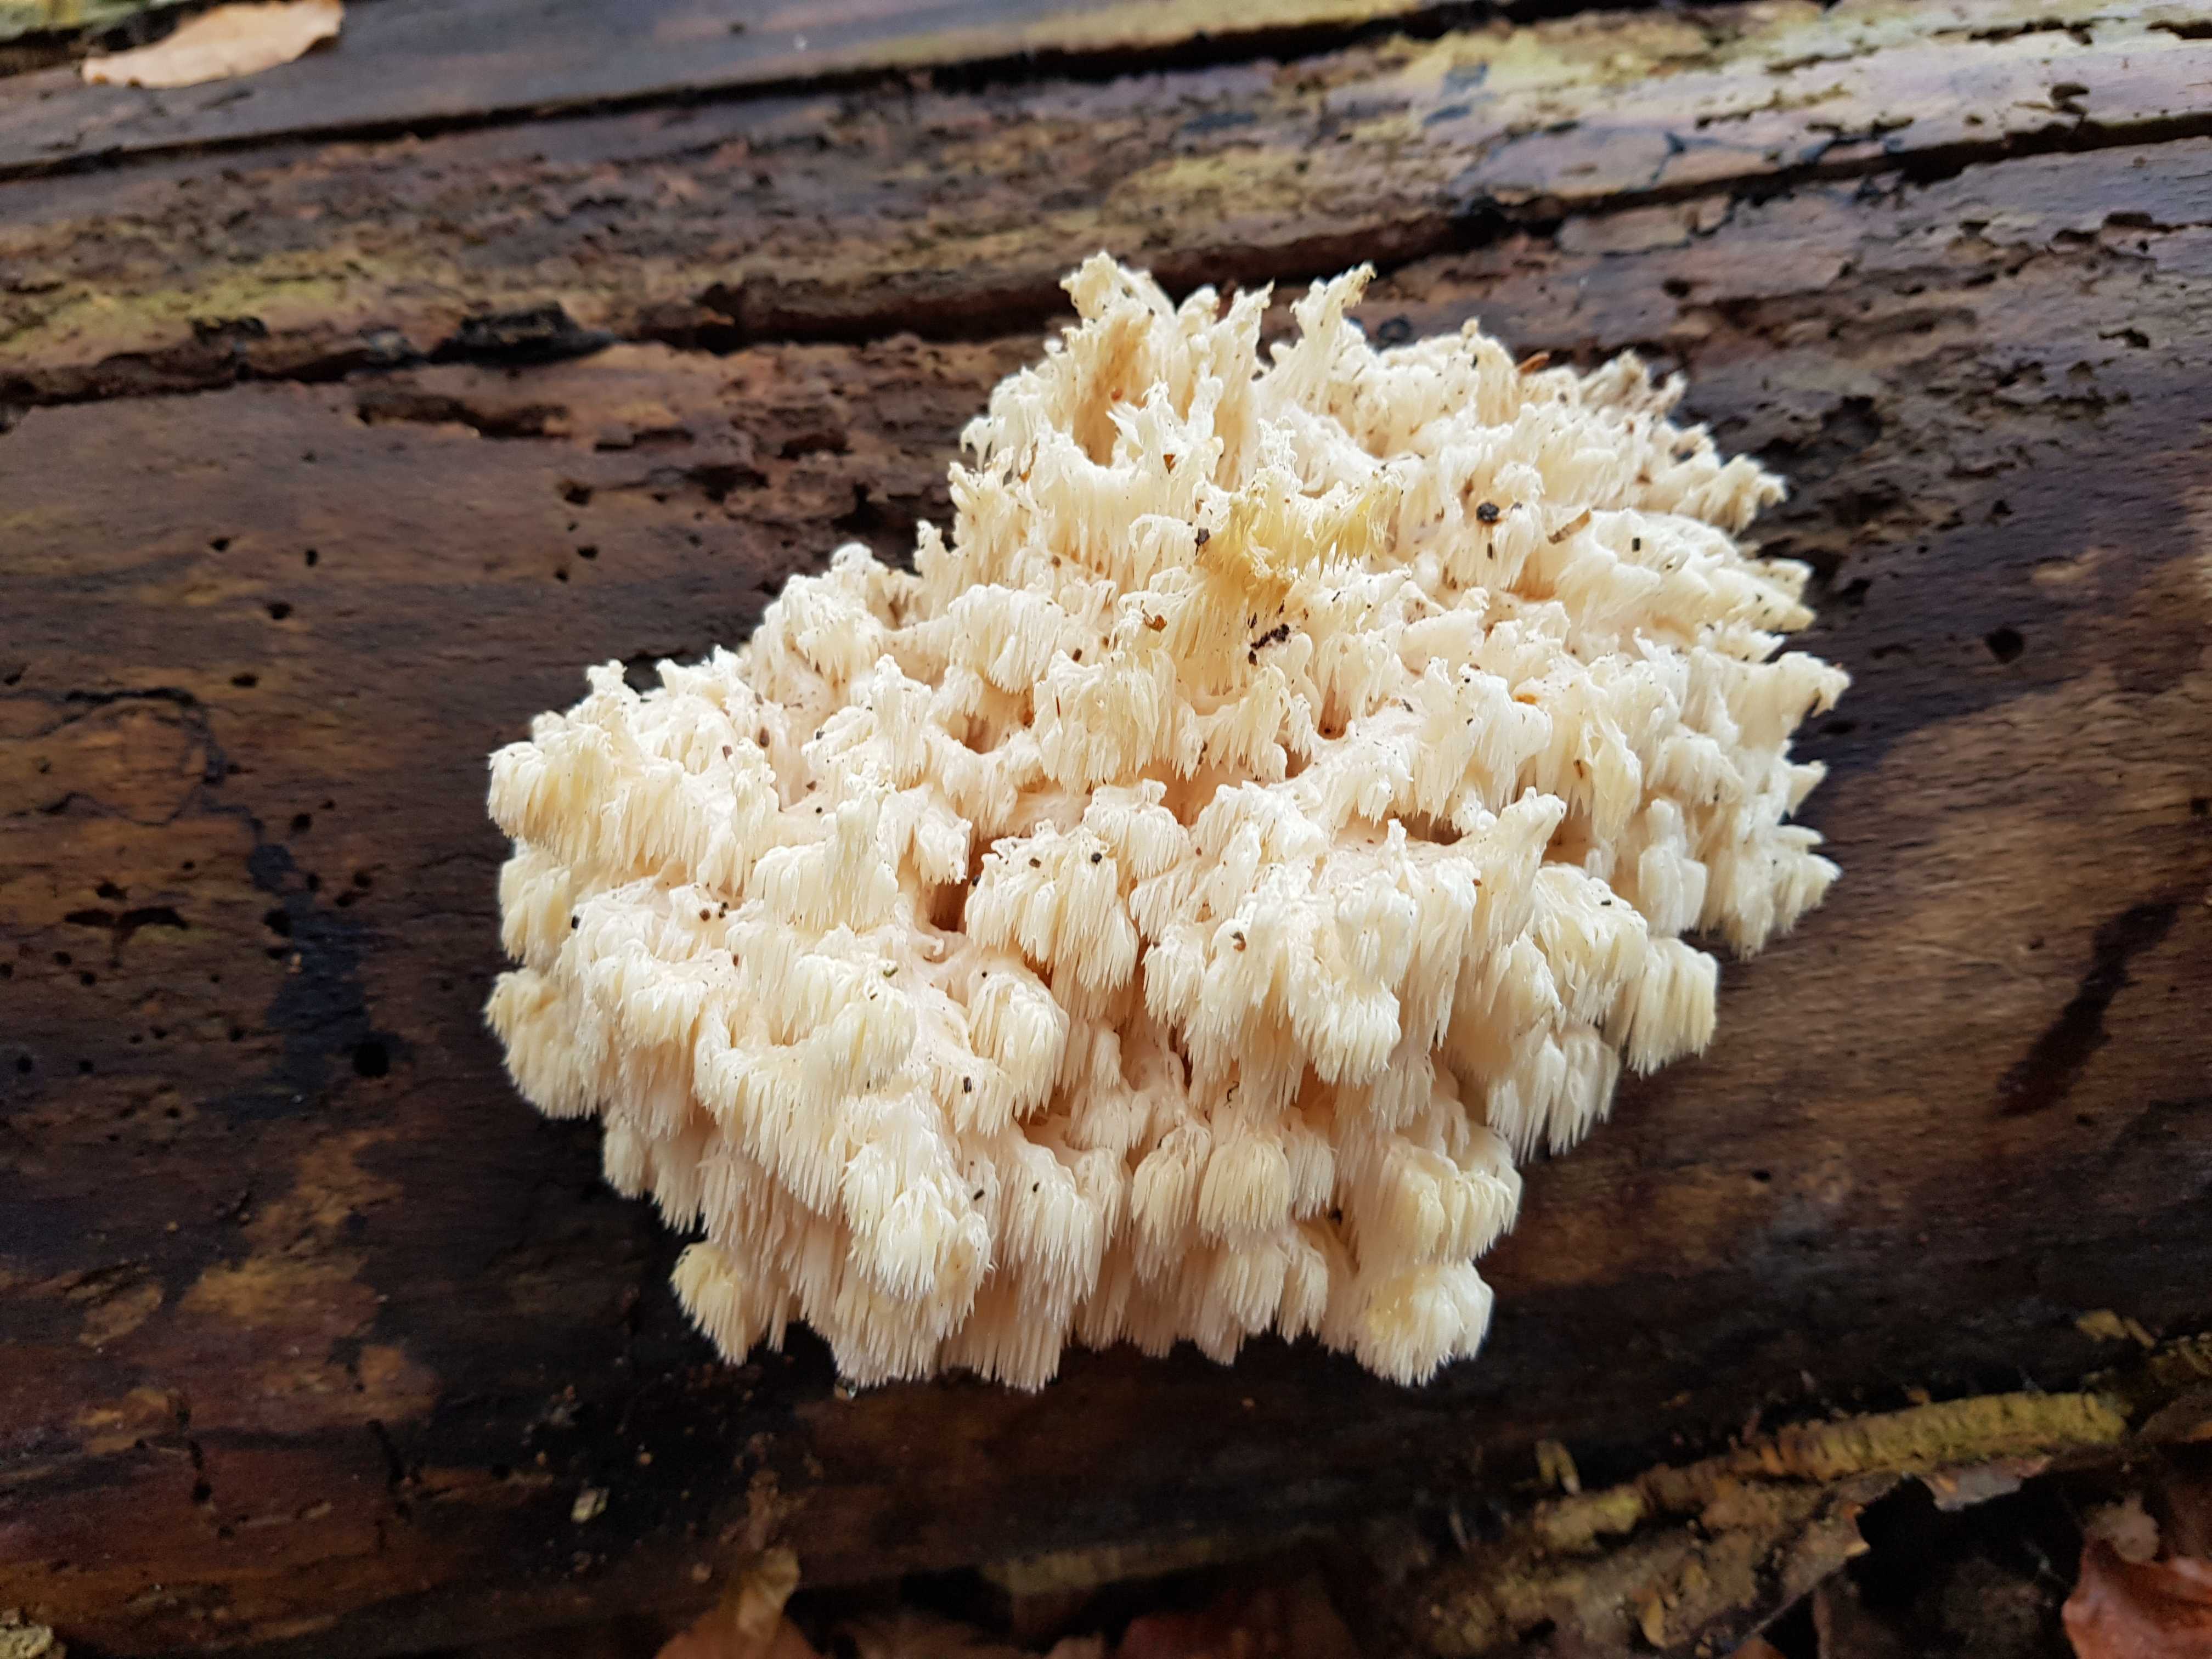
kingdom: Fungi
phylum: Basidiomycota
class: Agaricomycetes
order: Russulales
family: Hericiaceae
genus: Hericium
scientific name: Hericium coralloides
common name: koralpigsvamp
